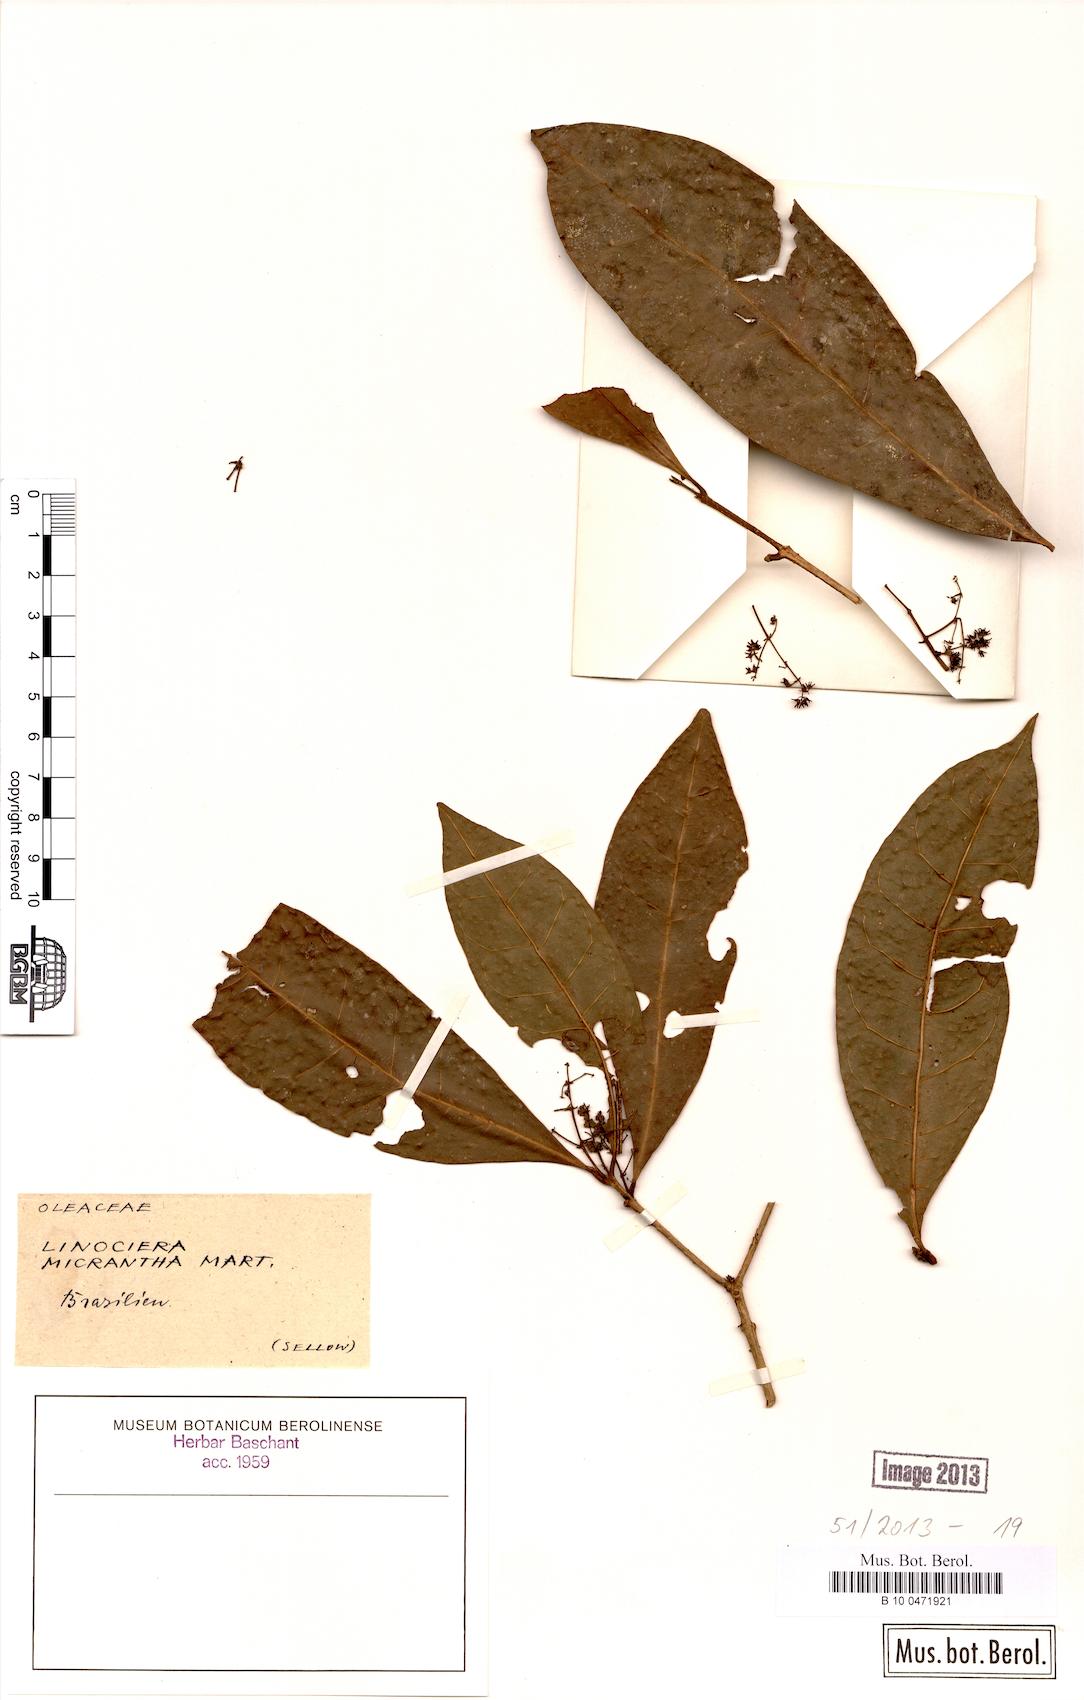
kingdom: Plantae
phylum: Tracheophyta
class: Magnoliopsida
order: Lamiales
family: Oleaceae
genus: Chionanthus
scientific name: Chionanthus micranthus
